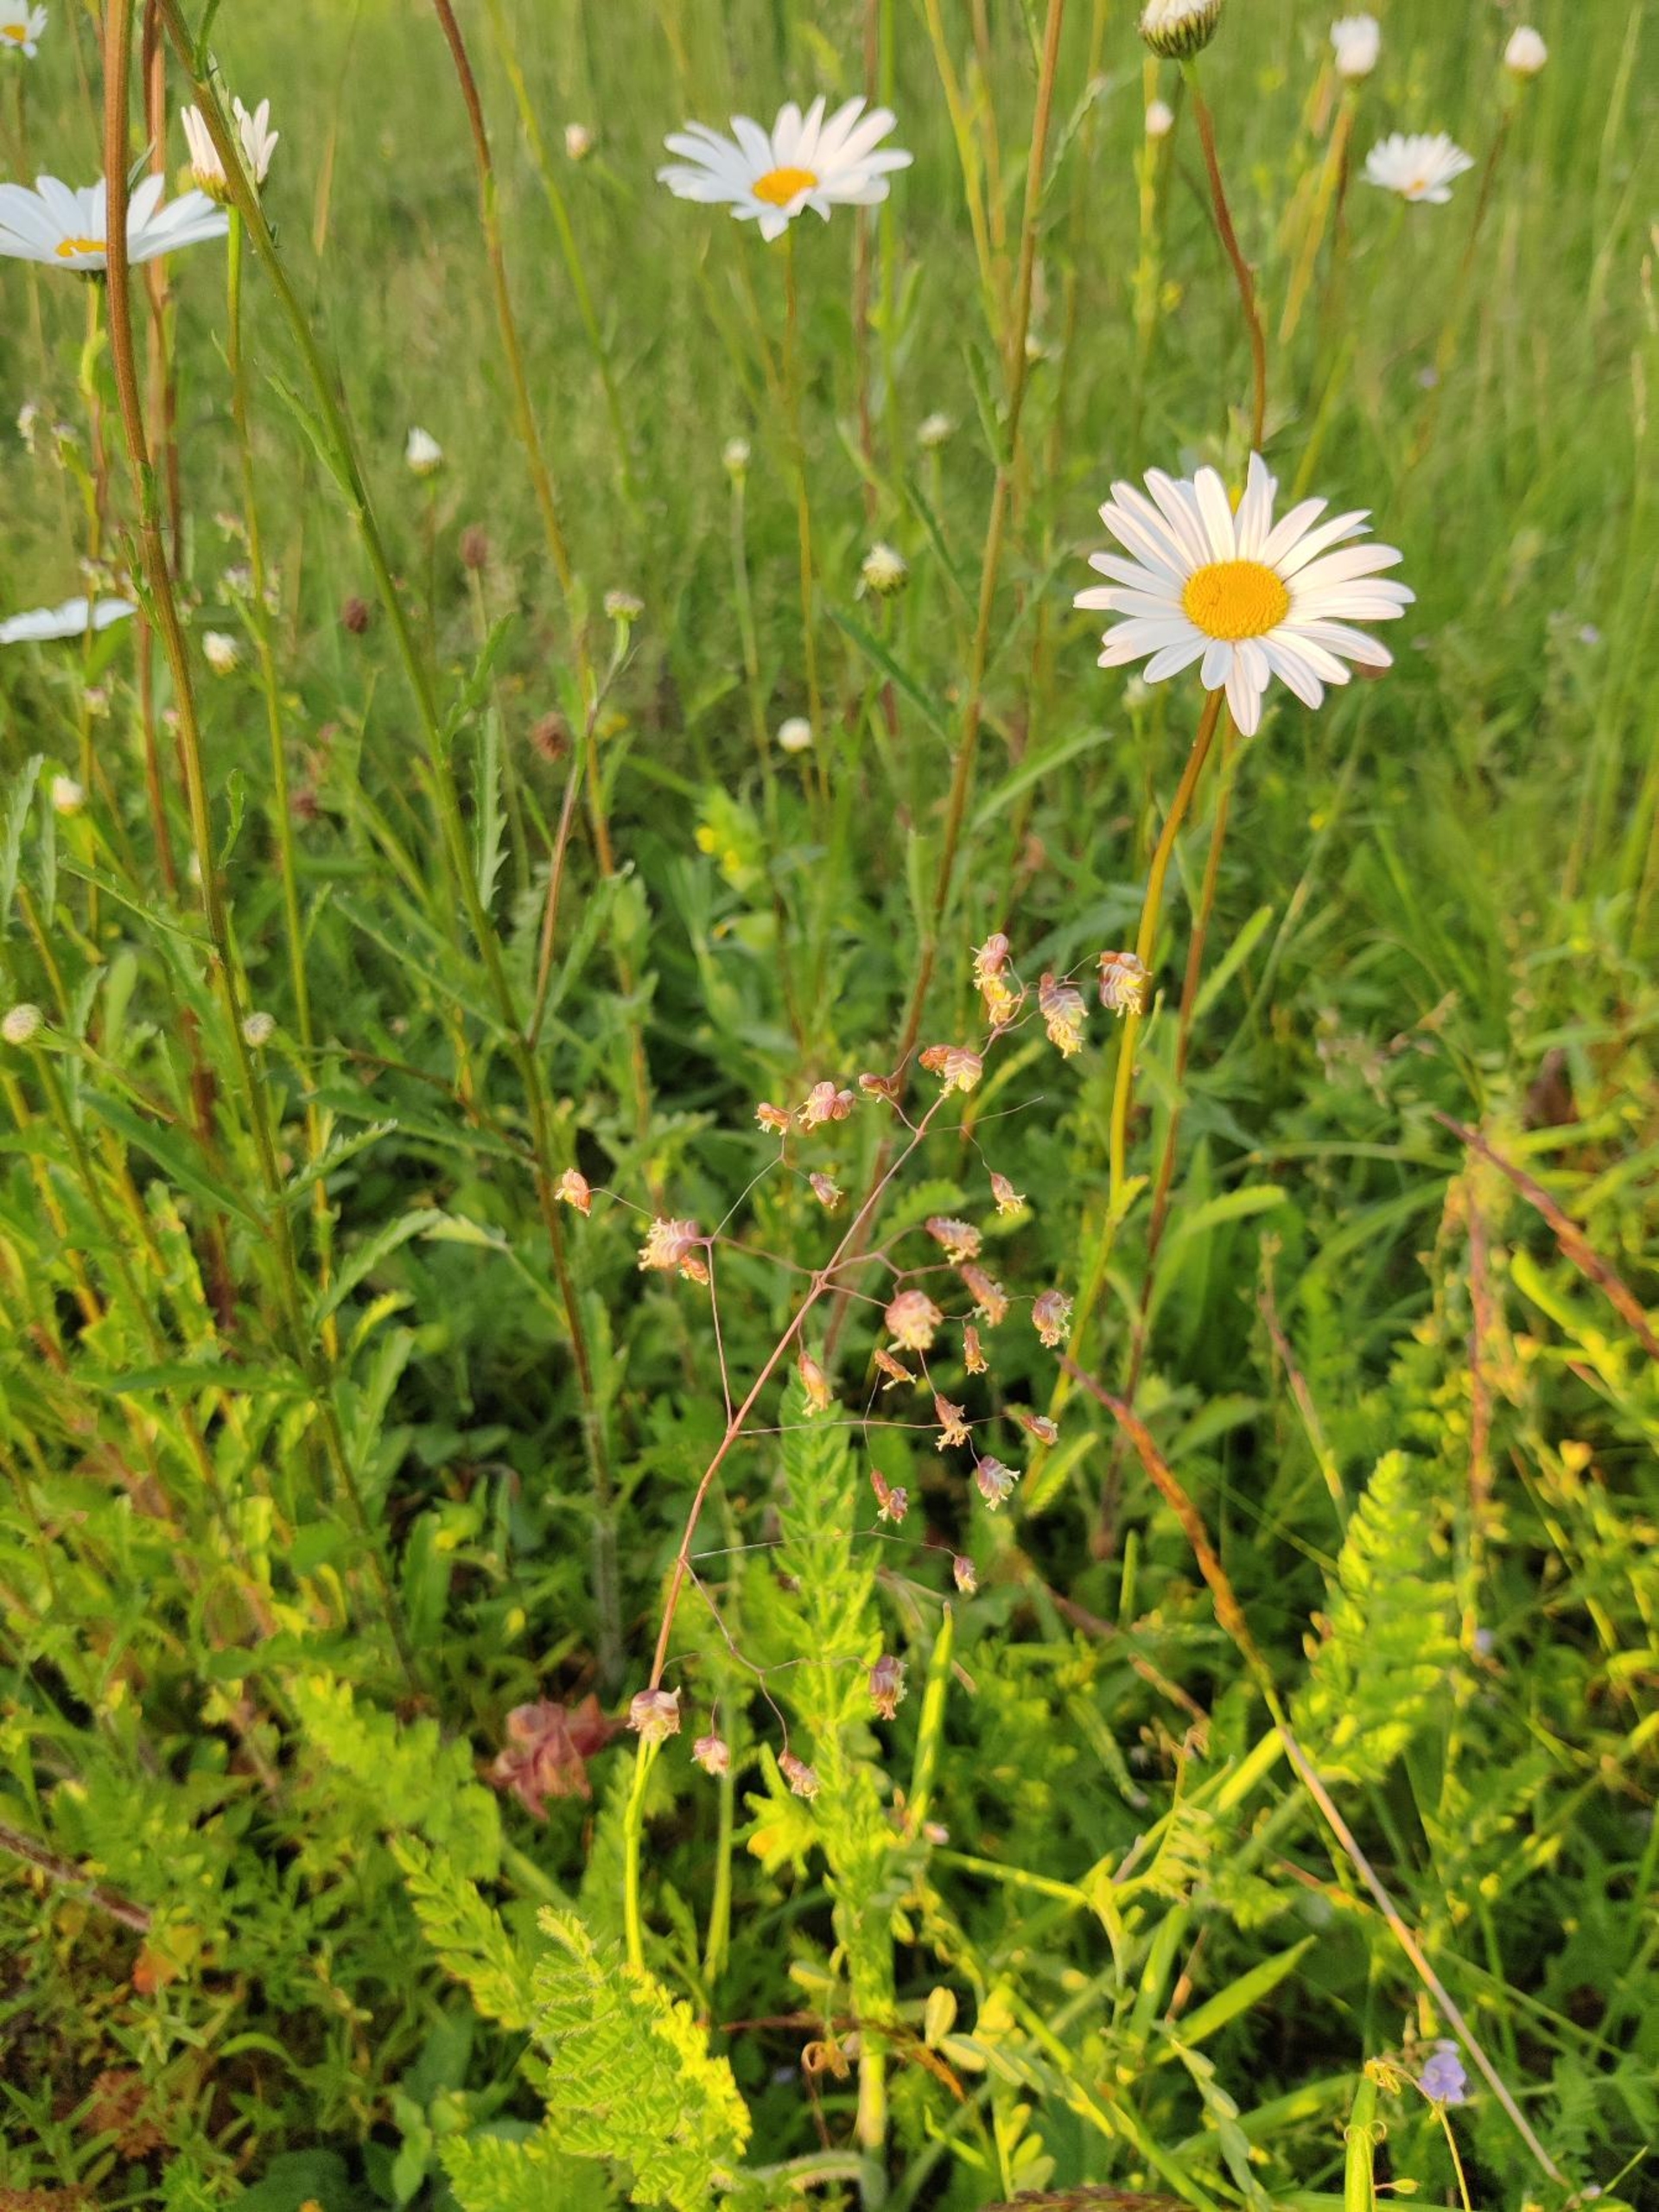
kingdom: Plantae
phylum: Tracheophyta
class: Liliopsida
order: Poales
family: Poaceae
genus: Briza
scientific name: Briza media
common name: Hjertegræs
